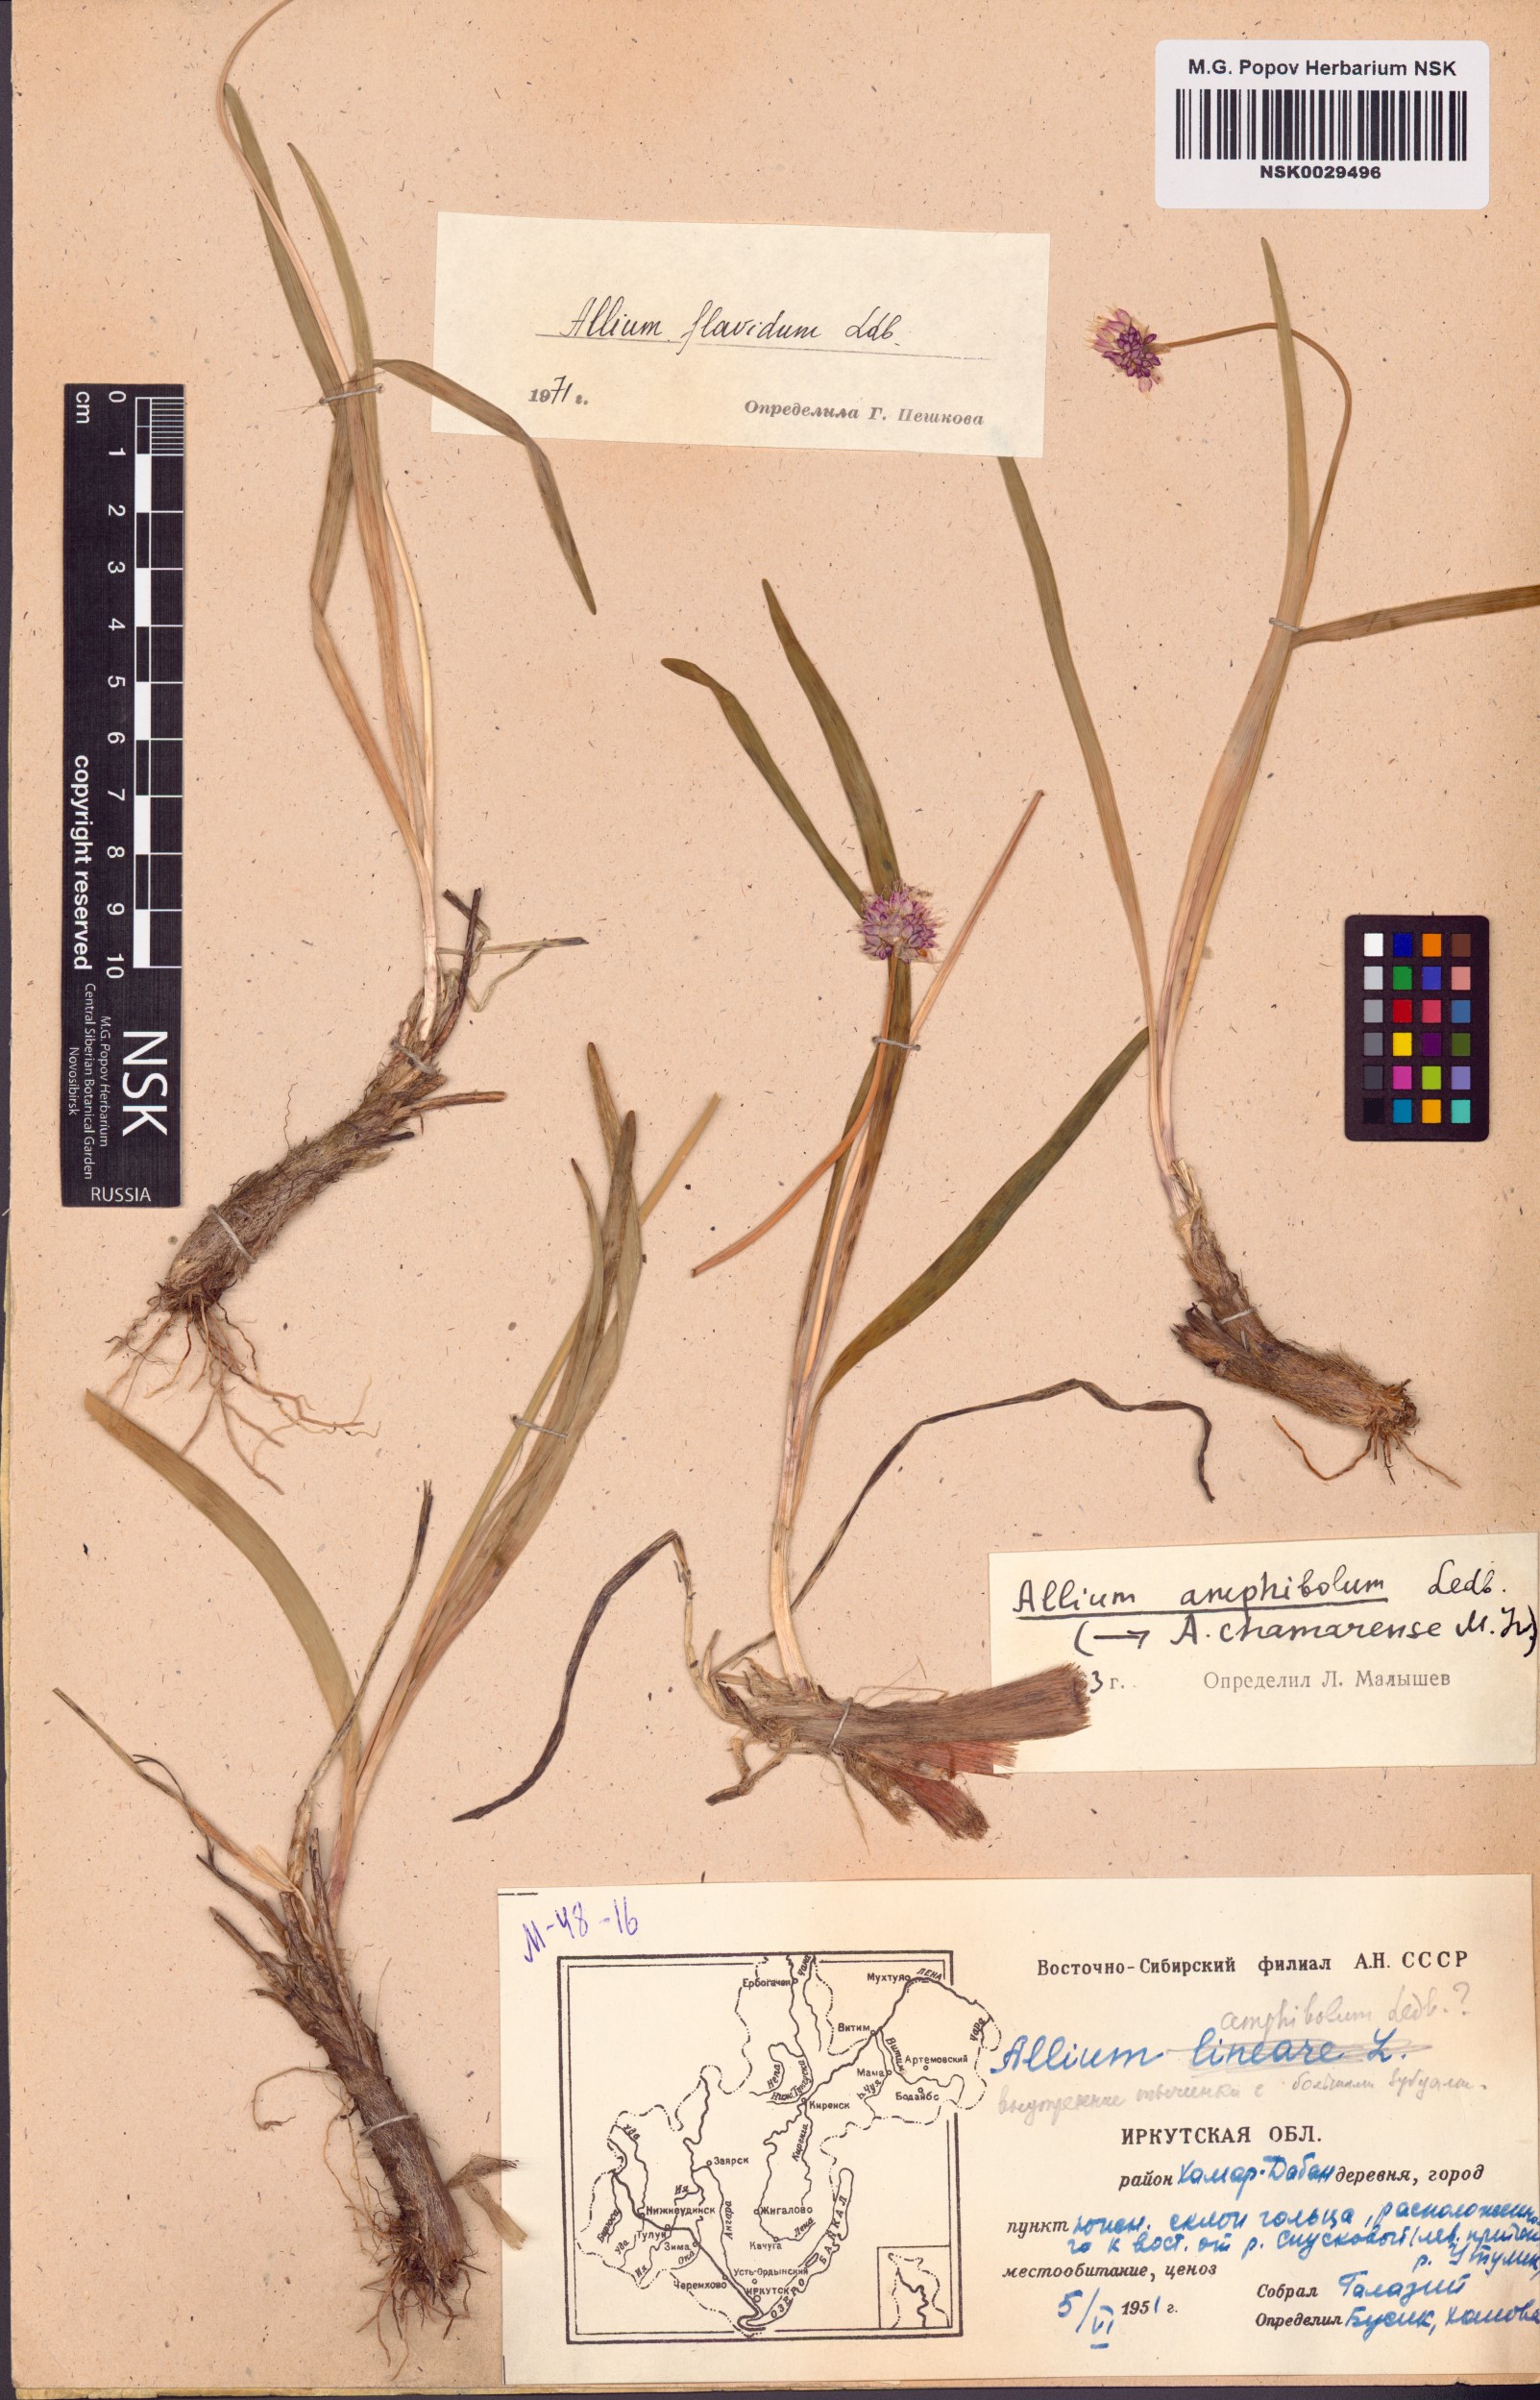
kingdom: Plantae
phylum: Tracheophyta
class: Liliopsida
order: Asparagales
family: Amaryllidaceae
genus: Allium
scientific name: Allium flavidum
